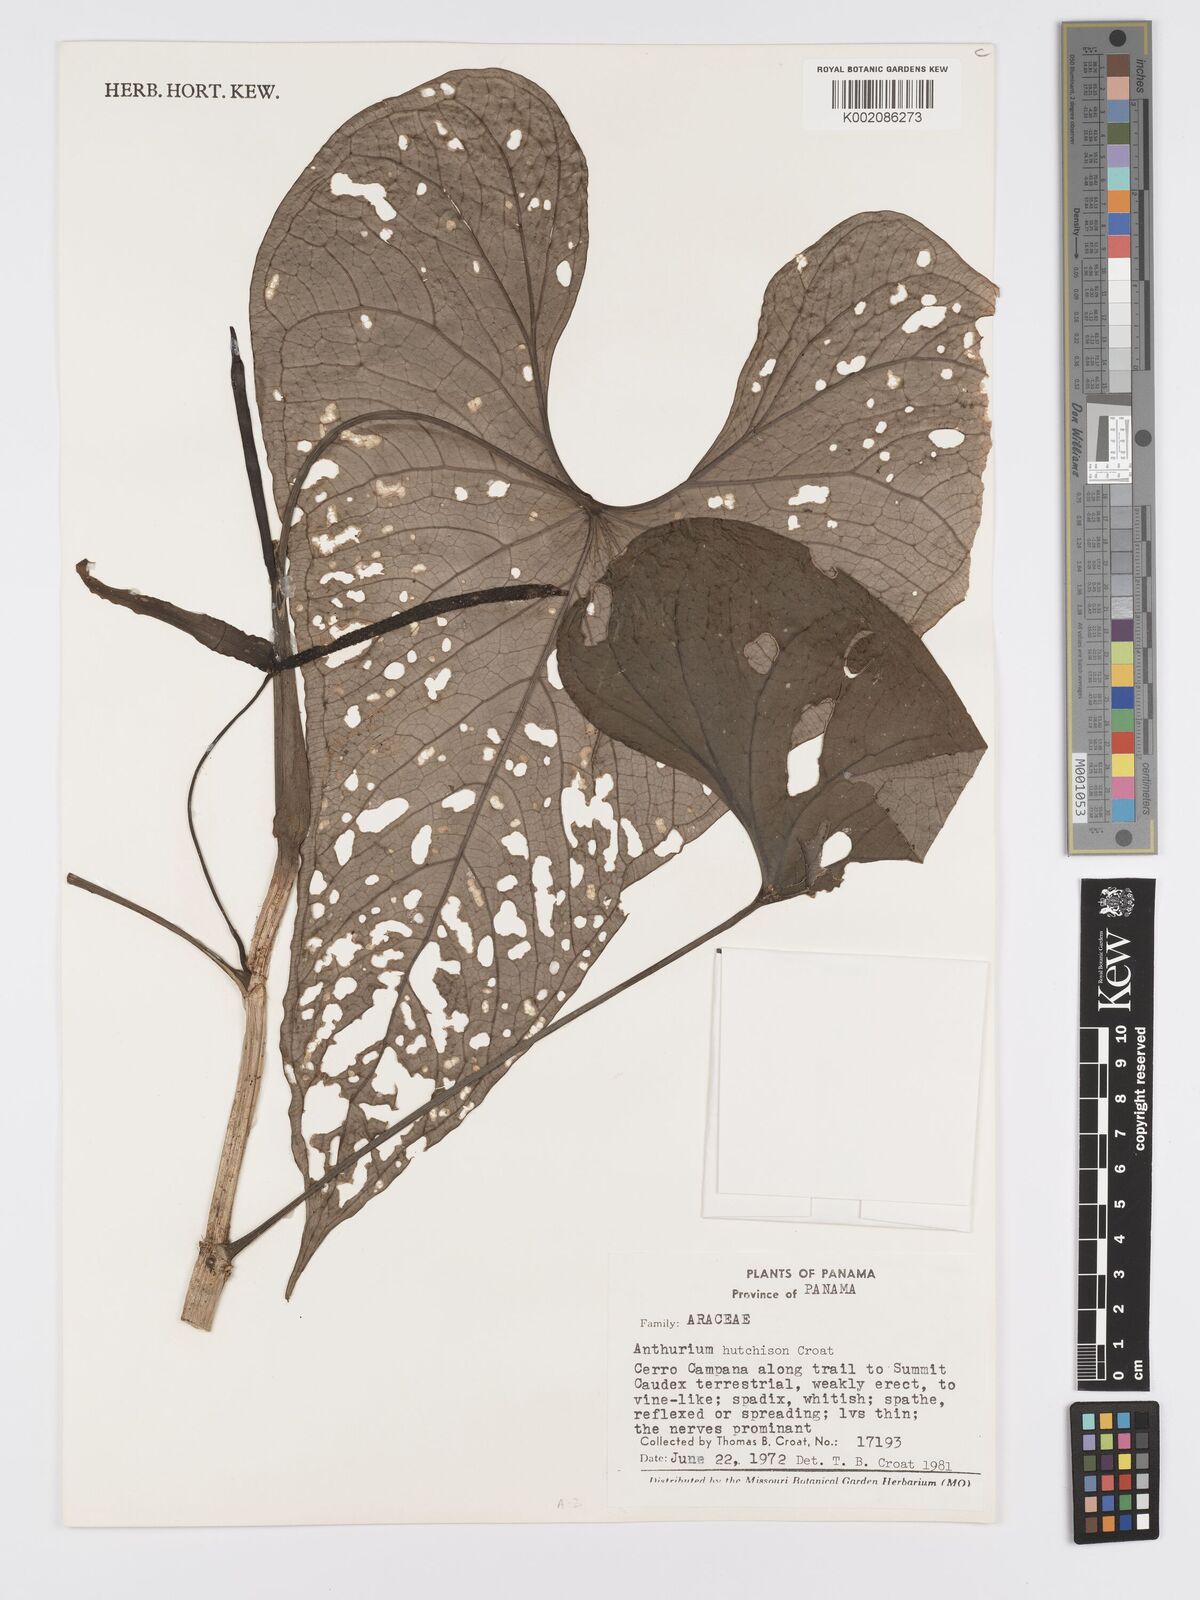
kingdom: Plantae
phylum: Tracheophyta
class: Liliopsida
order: Alismatales
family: Araceae
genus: Anthurium
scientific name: Anthurium hutchisonii
